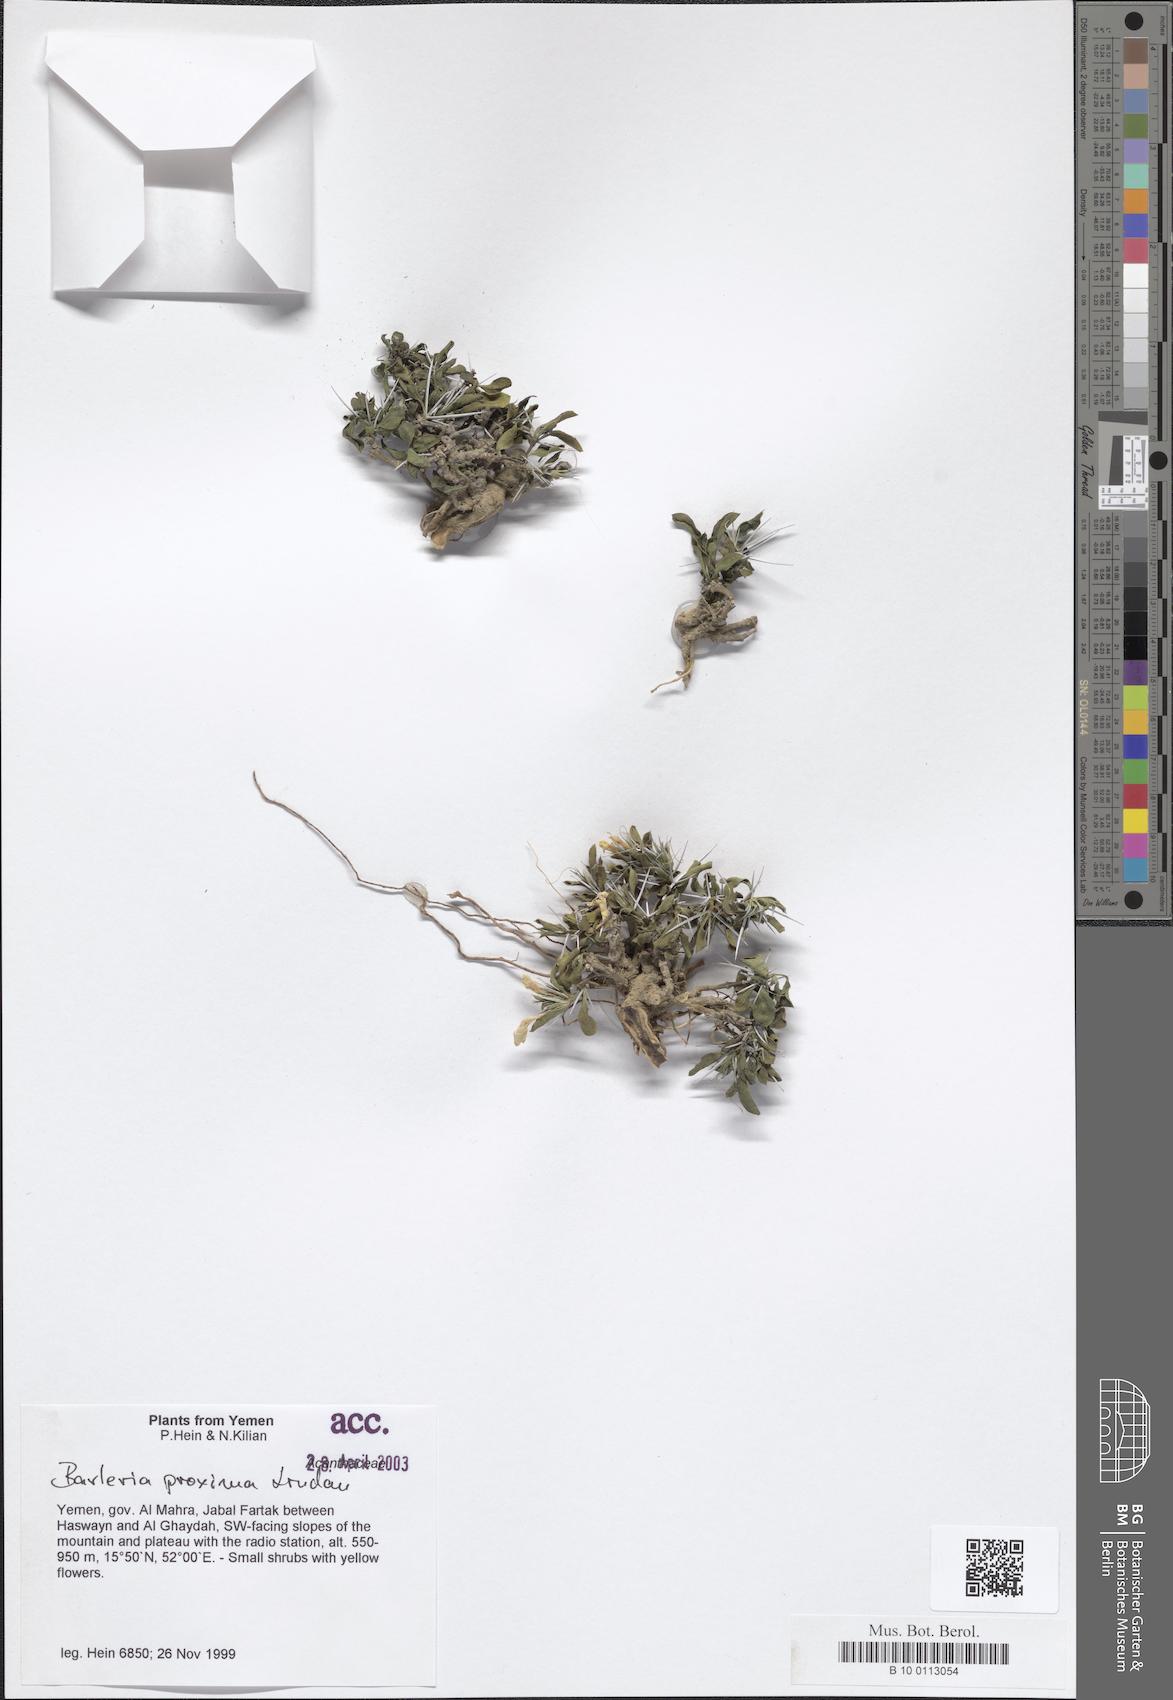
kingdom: Plantae
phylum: Tracheophyta
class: Magnoliopsida
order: Lamiales
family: Acanthaceae
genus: Barleria
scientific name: Barleria proxima
